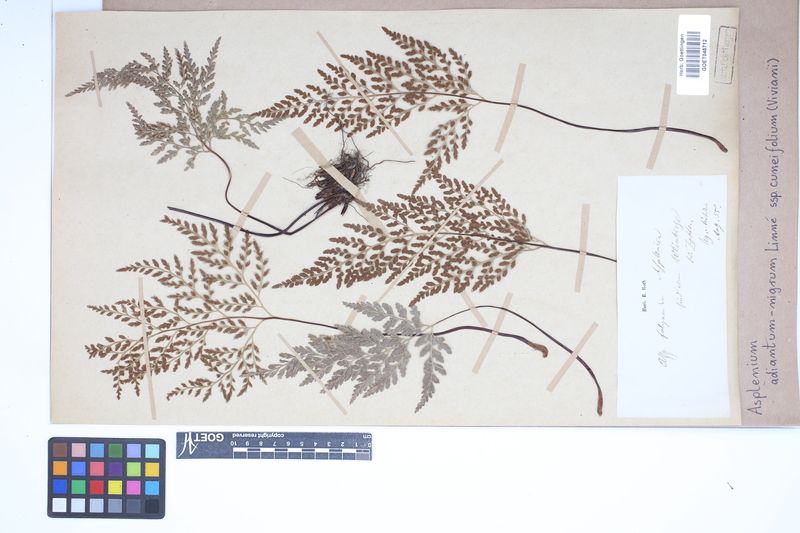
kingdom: Plantae
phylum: Tracheophyta
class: Polypodiopsida
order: Polypodiales
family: Aspleniaceae
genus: Asplenium
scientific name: Asplenium cuneifolium
